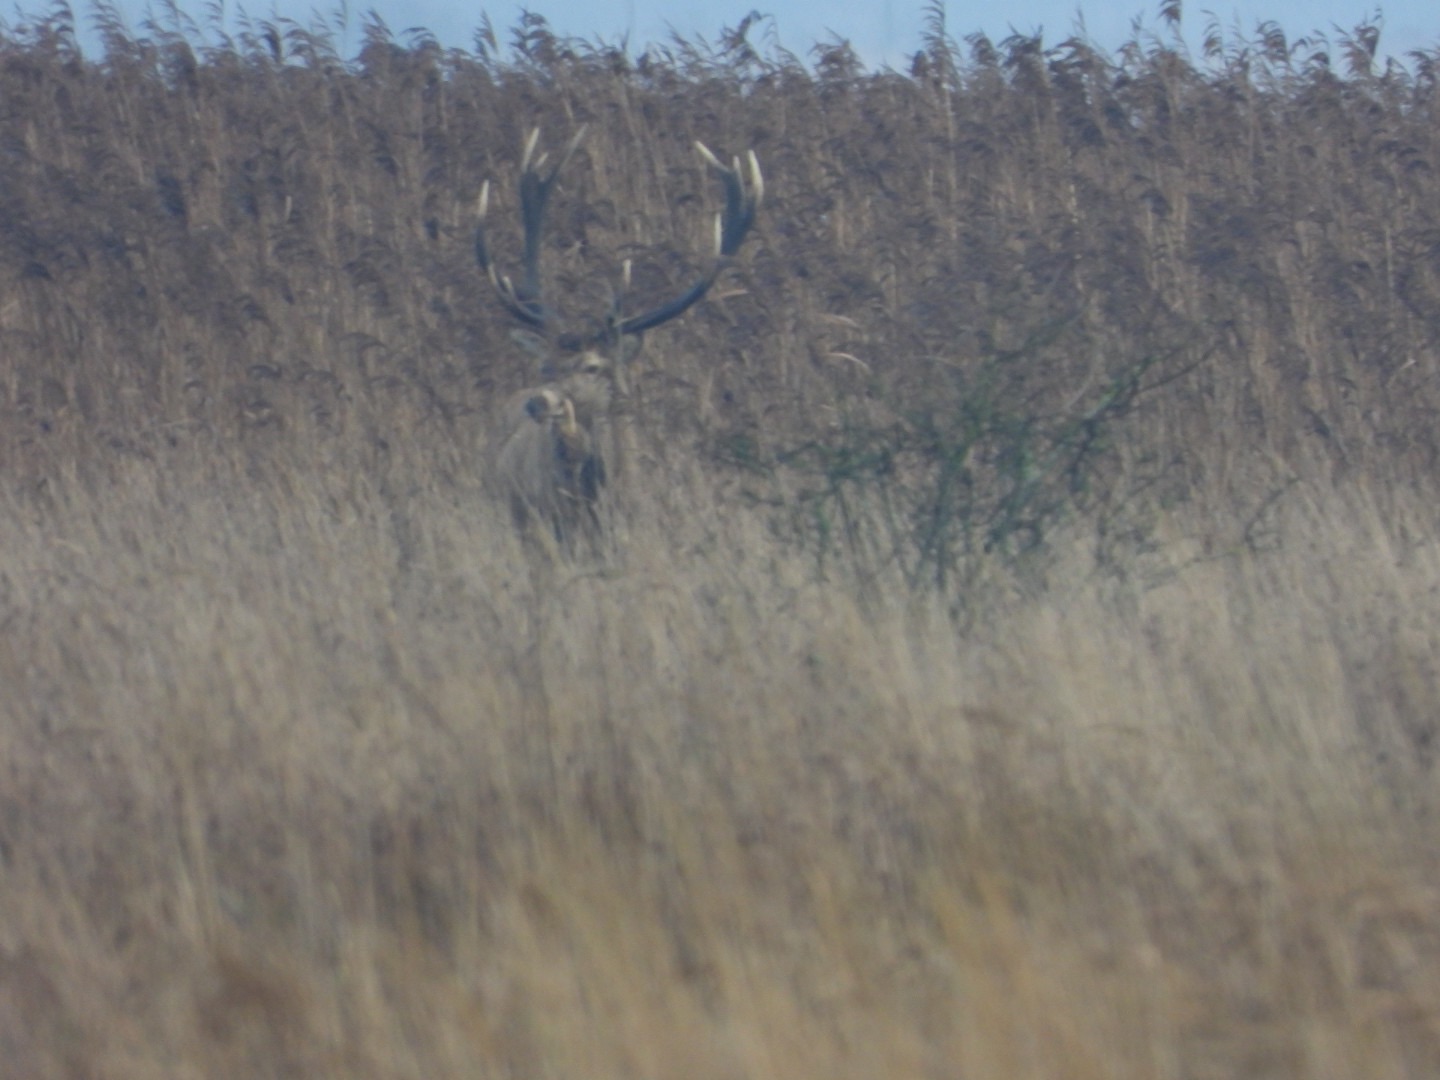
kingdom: Animalia
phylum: Chordata
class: Mammalia
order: Artiodactyla
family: Cervidae
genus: Cervus
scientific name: Cervus elaphus
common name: Krondyr
